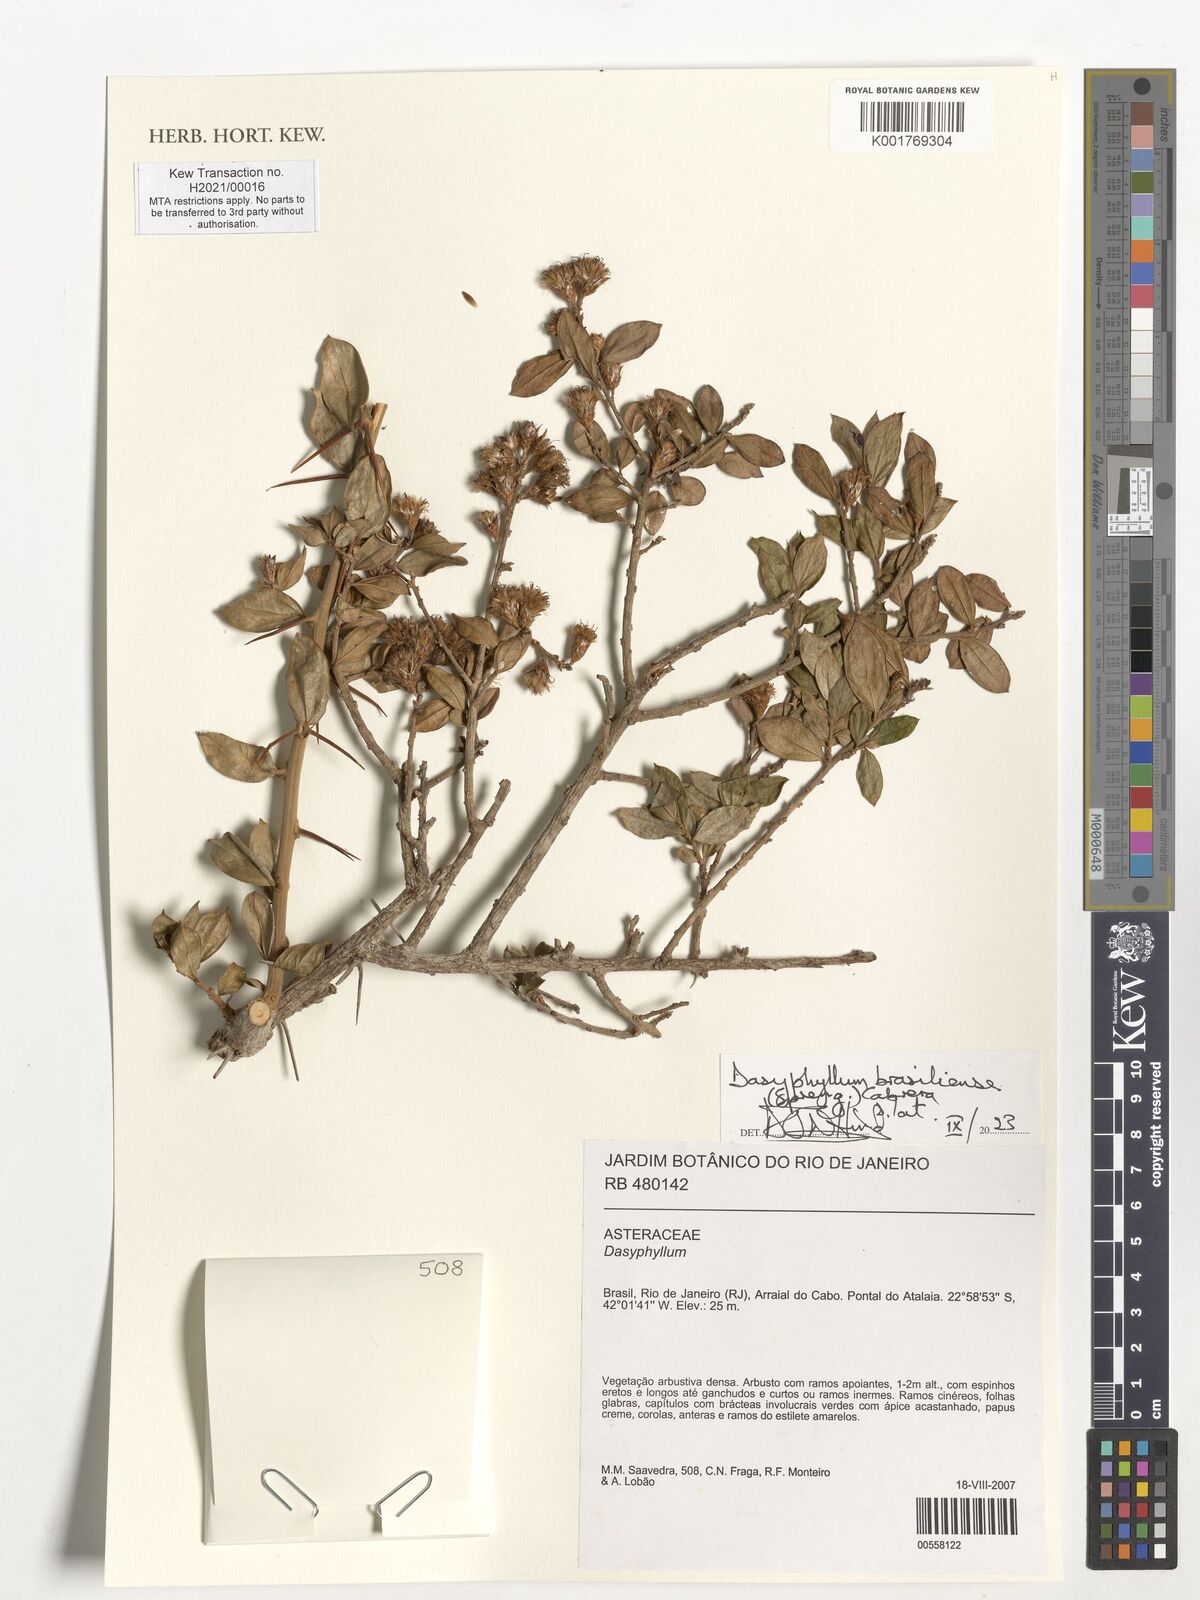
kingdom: Plantae
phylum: Tracheophyta
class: Magnoliopsida
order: Asterales
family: Asteraceae
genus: Dasyphyllum
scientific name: Dasyphyllum brasiliense
